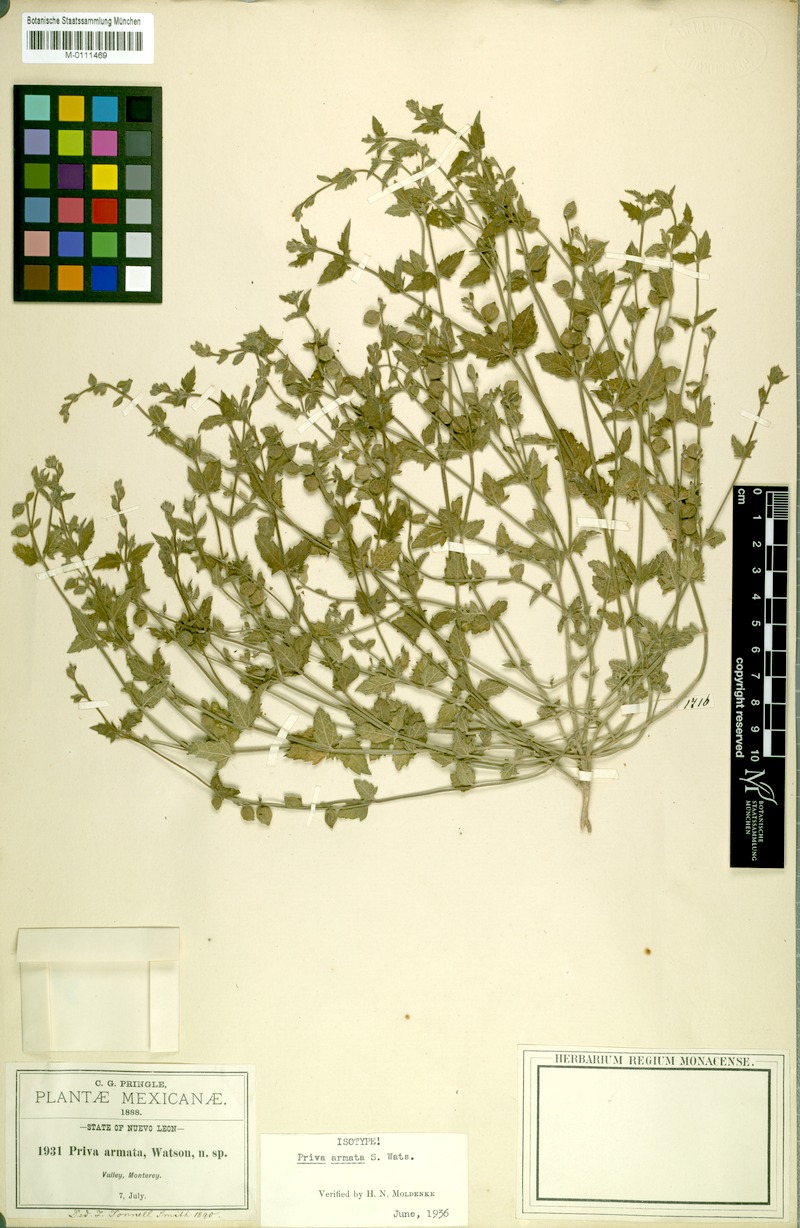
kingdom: Plantae
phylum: Tracheophyta
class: Magnoliopsida
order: Lamiales
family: Verbenaceae
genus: Priva
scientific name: Priva armata
